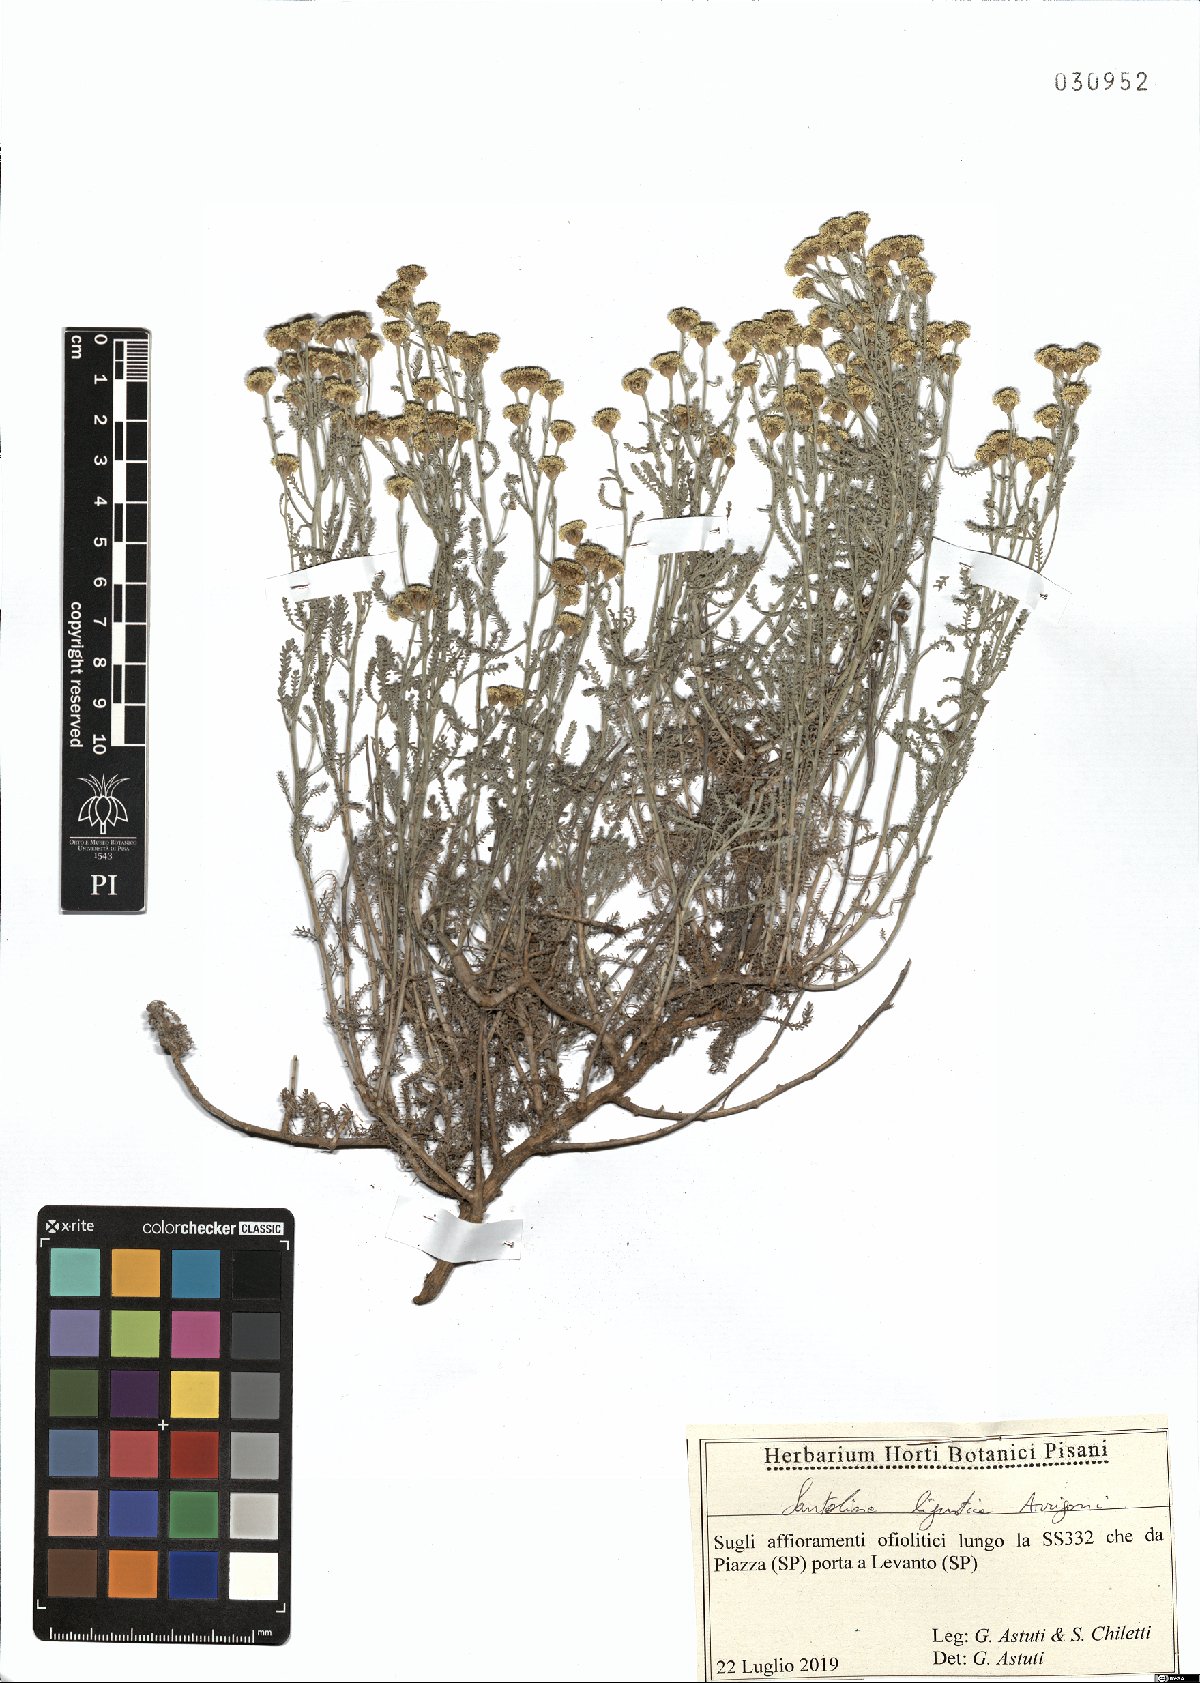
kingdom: Plantae
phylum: Tracheophyta
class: Magnoliopsida
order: Asterales
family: Asteraceae
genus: Santolina
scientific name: Santolina ligustica
